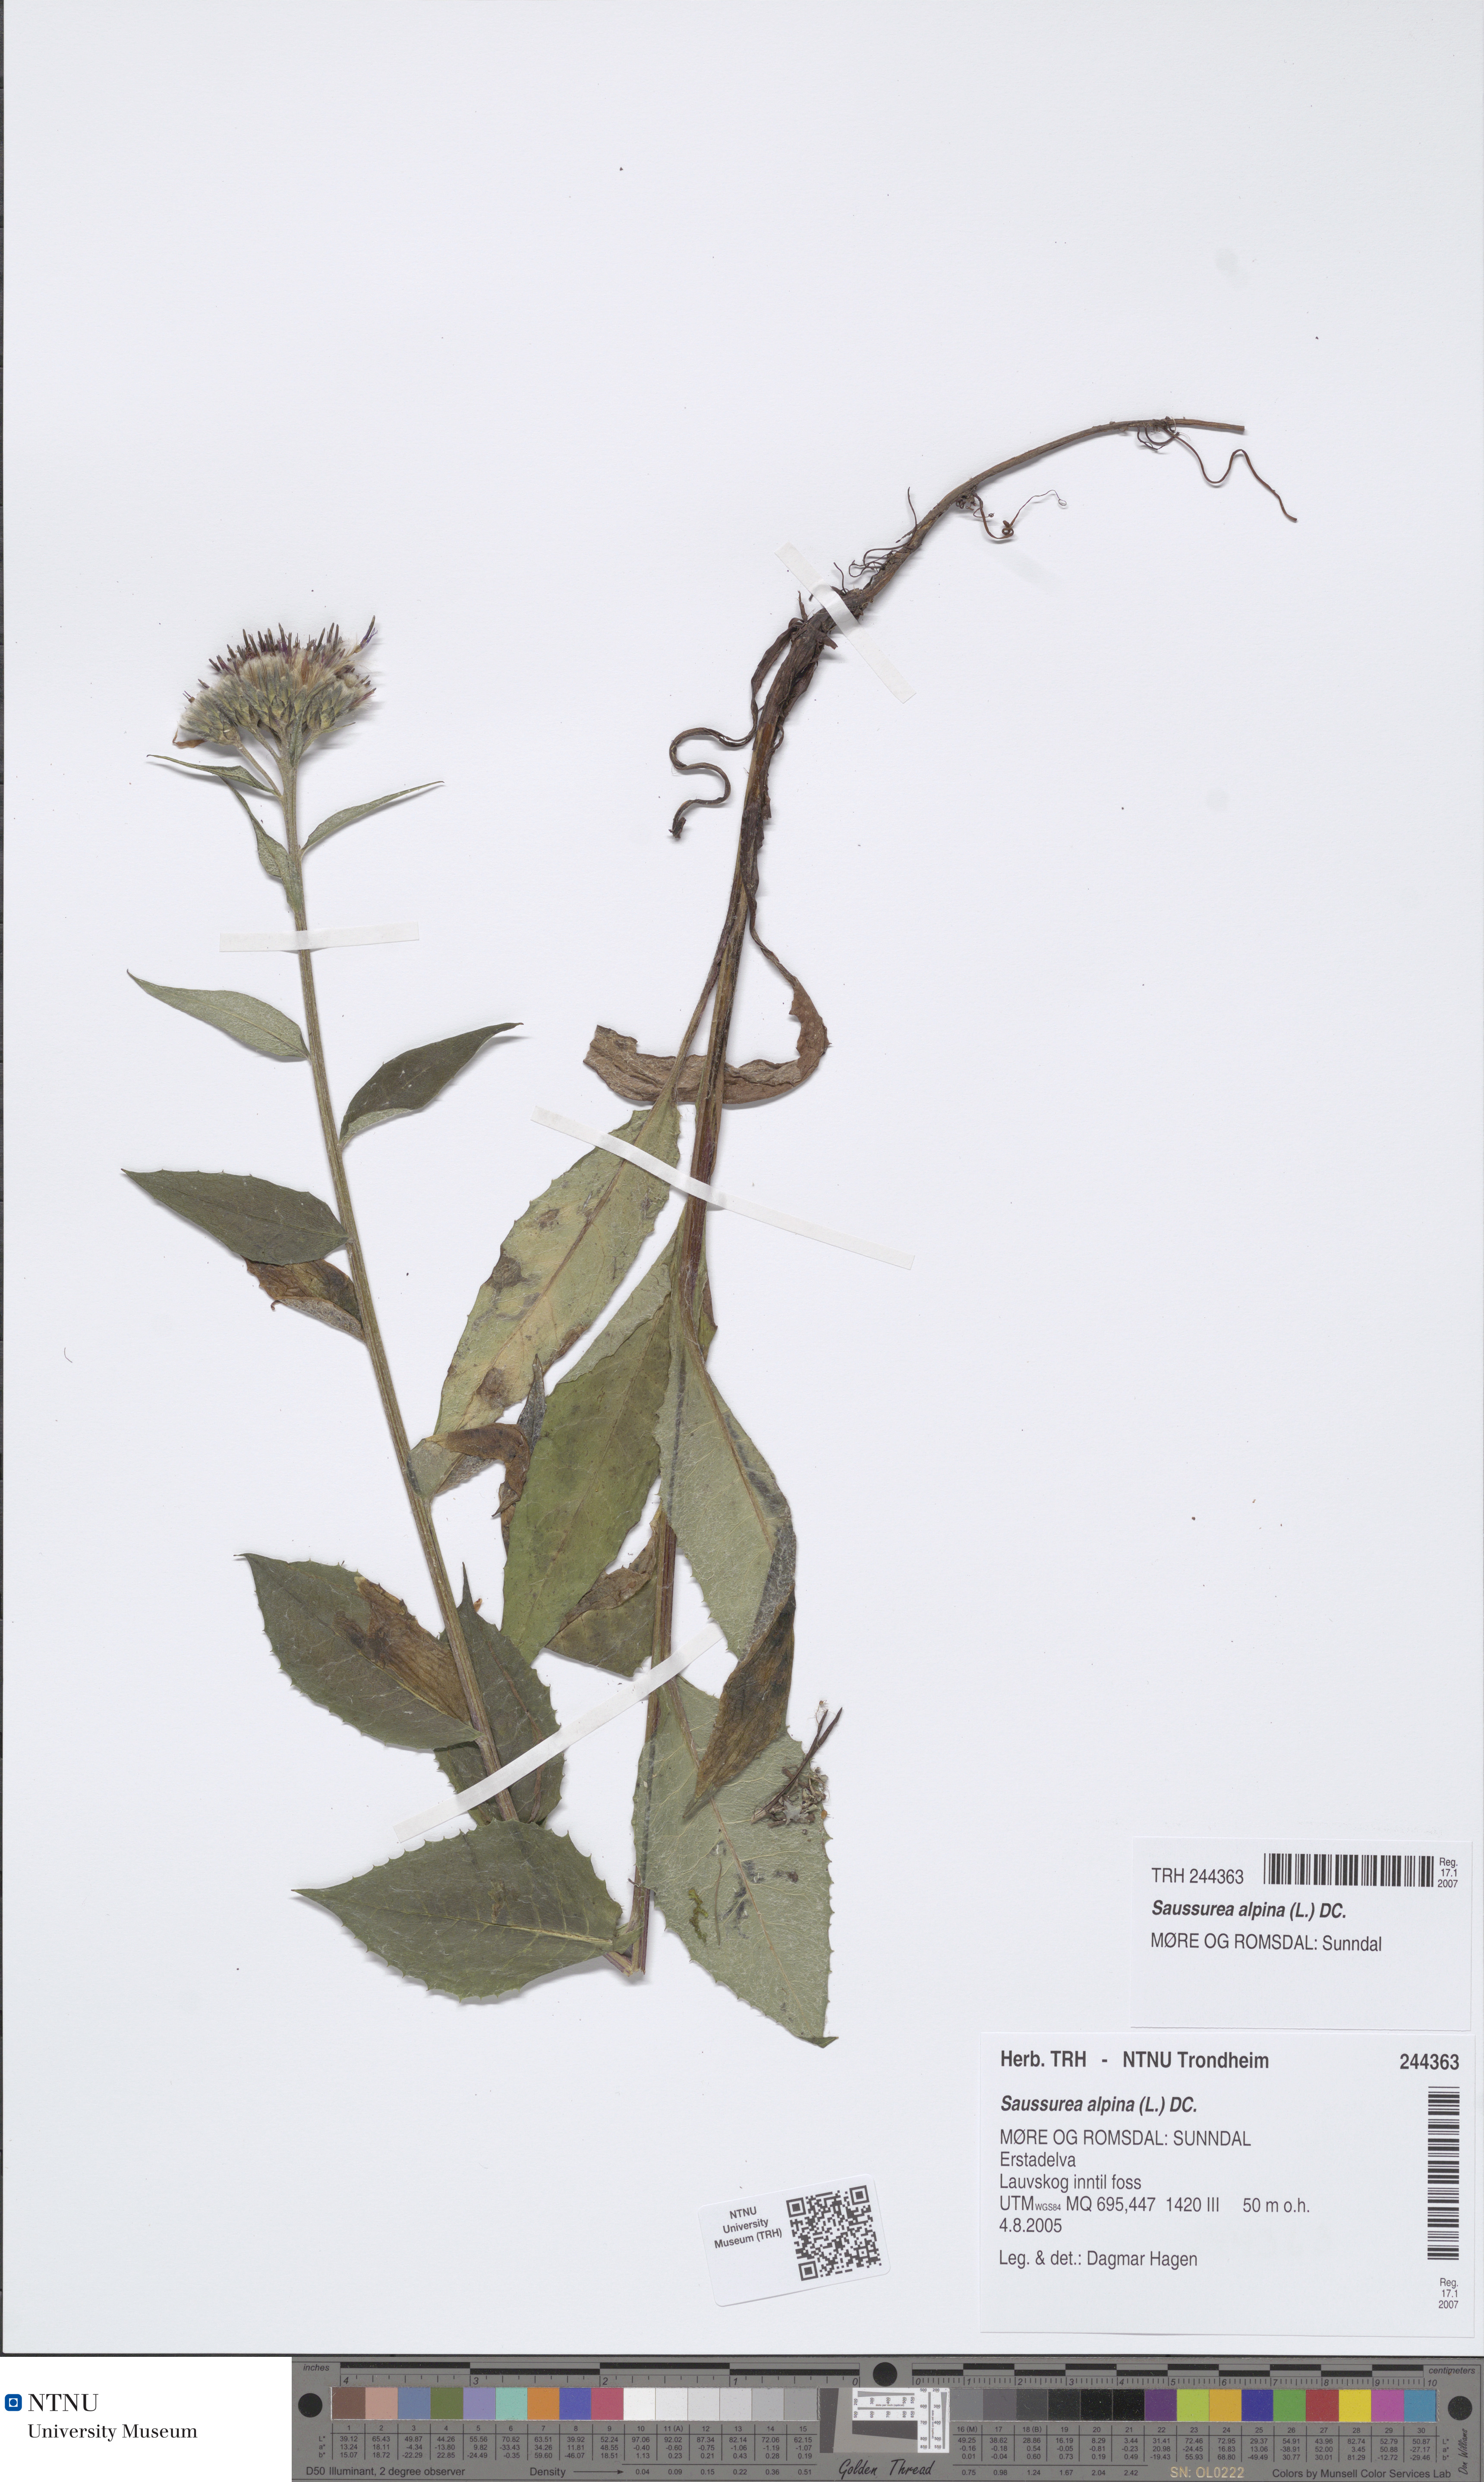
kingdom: Plantae
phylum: Tracheophyta
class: Magnoliopsida
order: Asterales
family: Asteraceae
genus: Saussurea
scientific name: Saussurea alpina
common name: Alpine saw-wort
